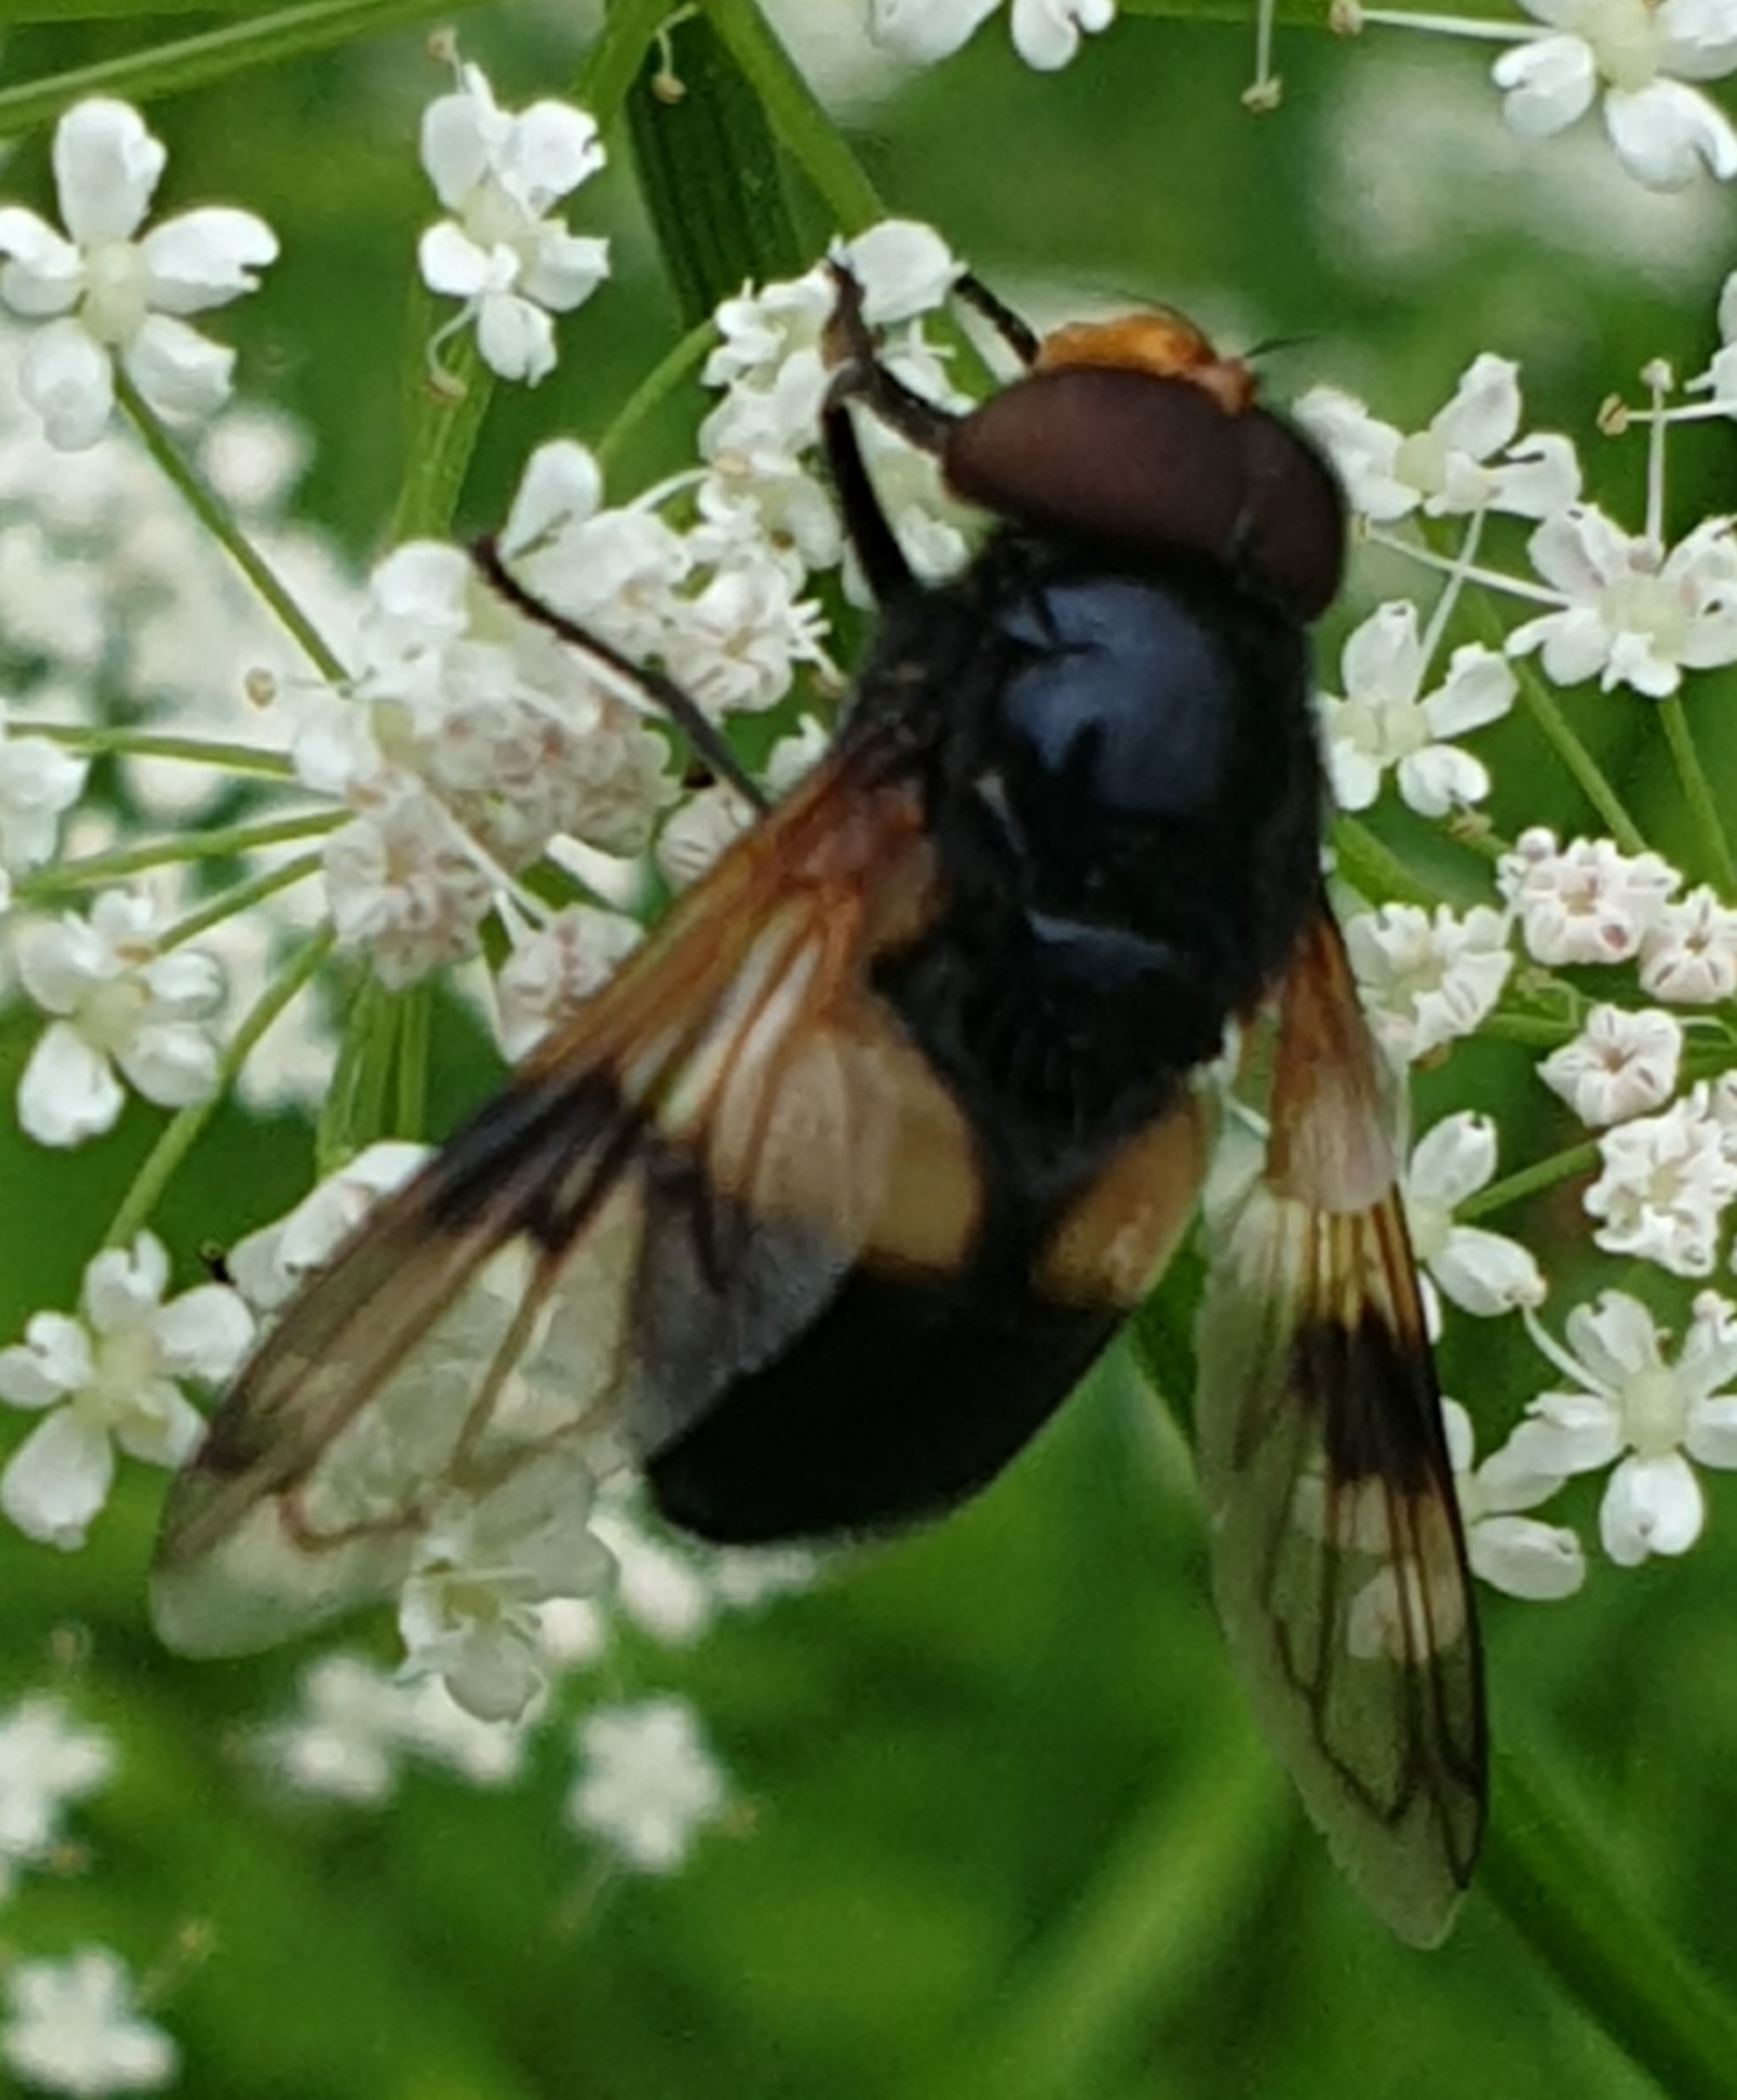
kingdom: Animalia
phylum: Arthropoda
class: Insecta
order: Diptera
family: Syrphidae
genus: Volucella
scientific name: Volucella pellucens
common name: Hvidbåndet humlesvirreflue
